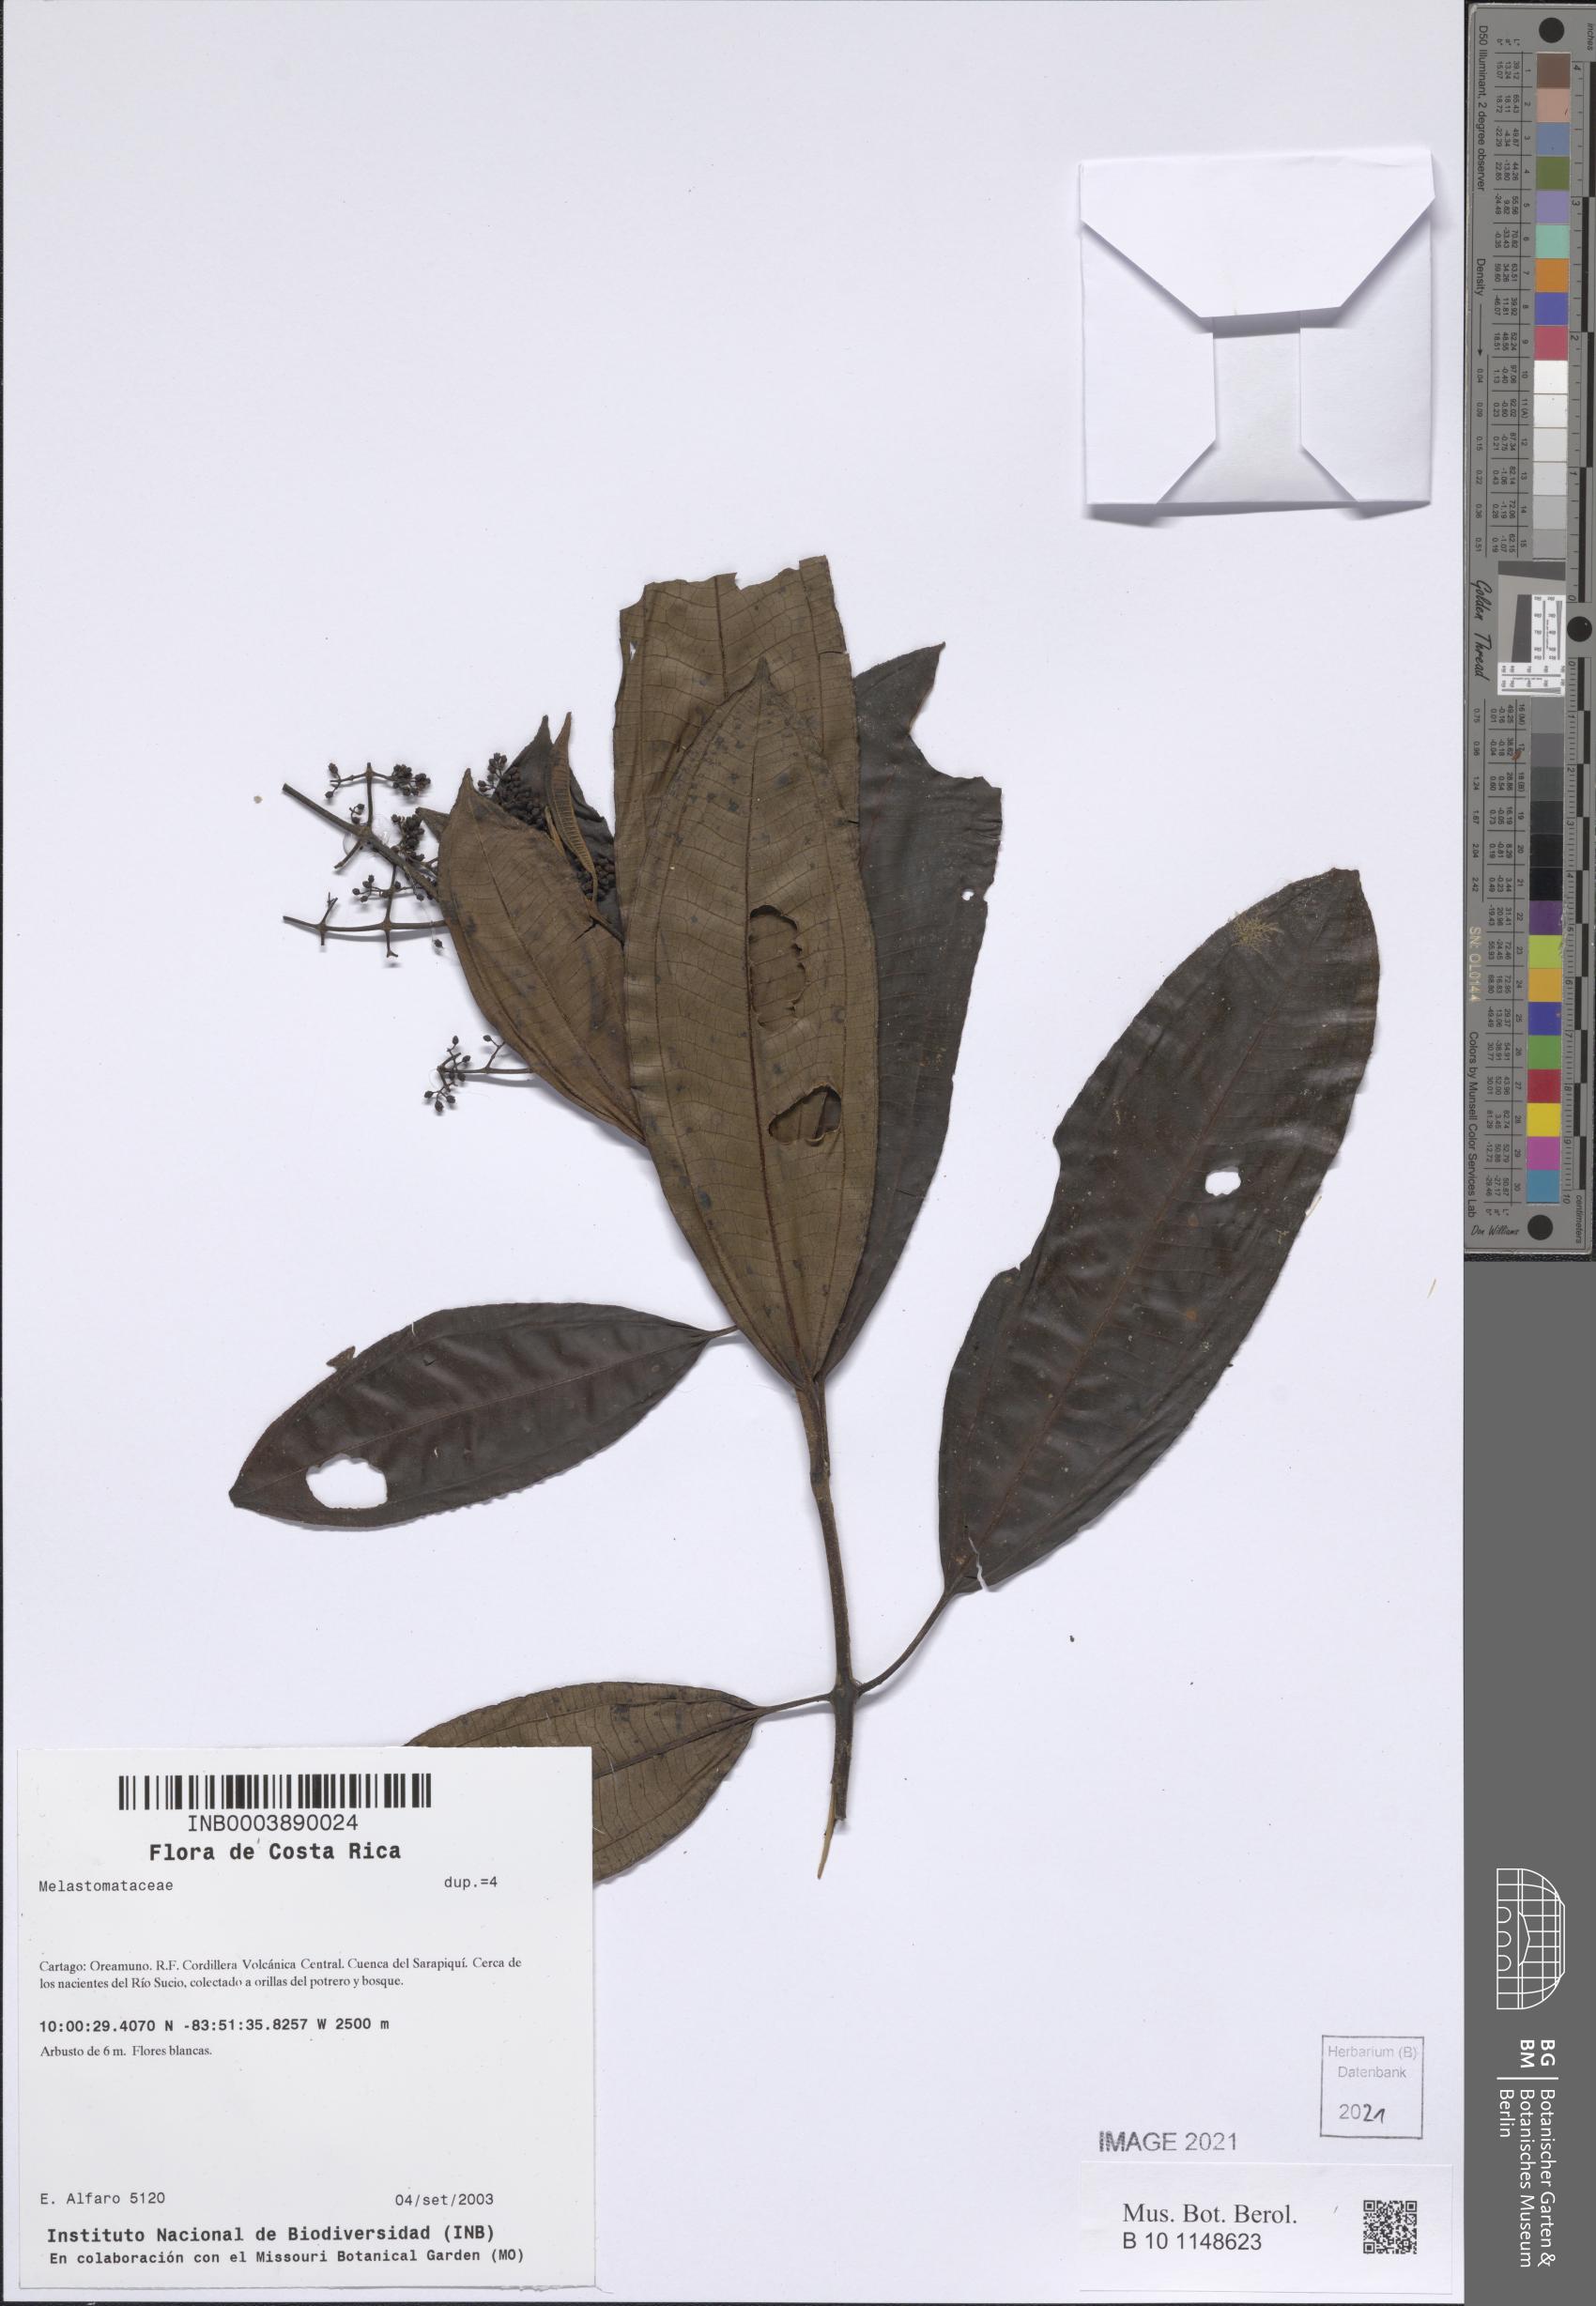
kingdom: Plantae
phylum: Tracheophyta
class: Magnoliopsida
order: Myrtales
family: Melastomataceae
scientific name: Melastomataceae
